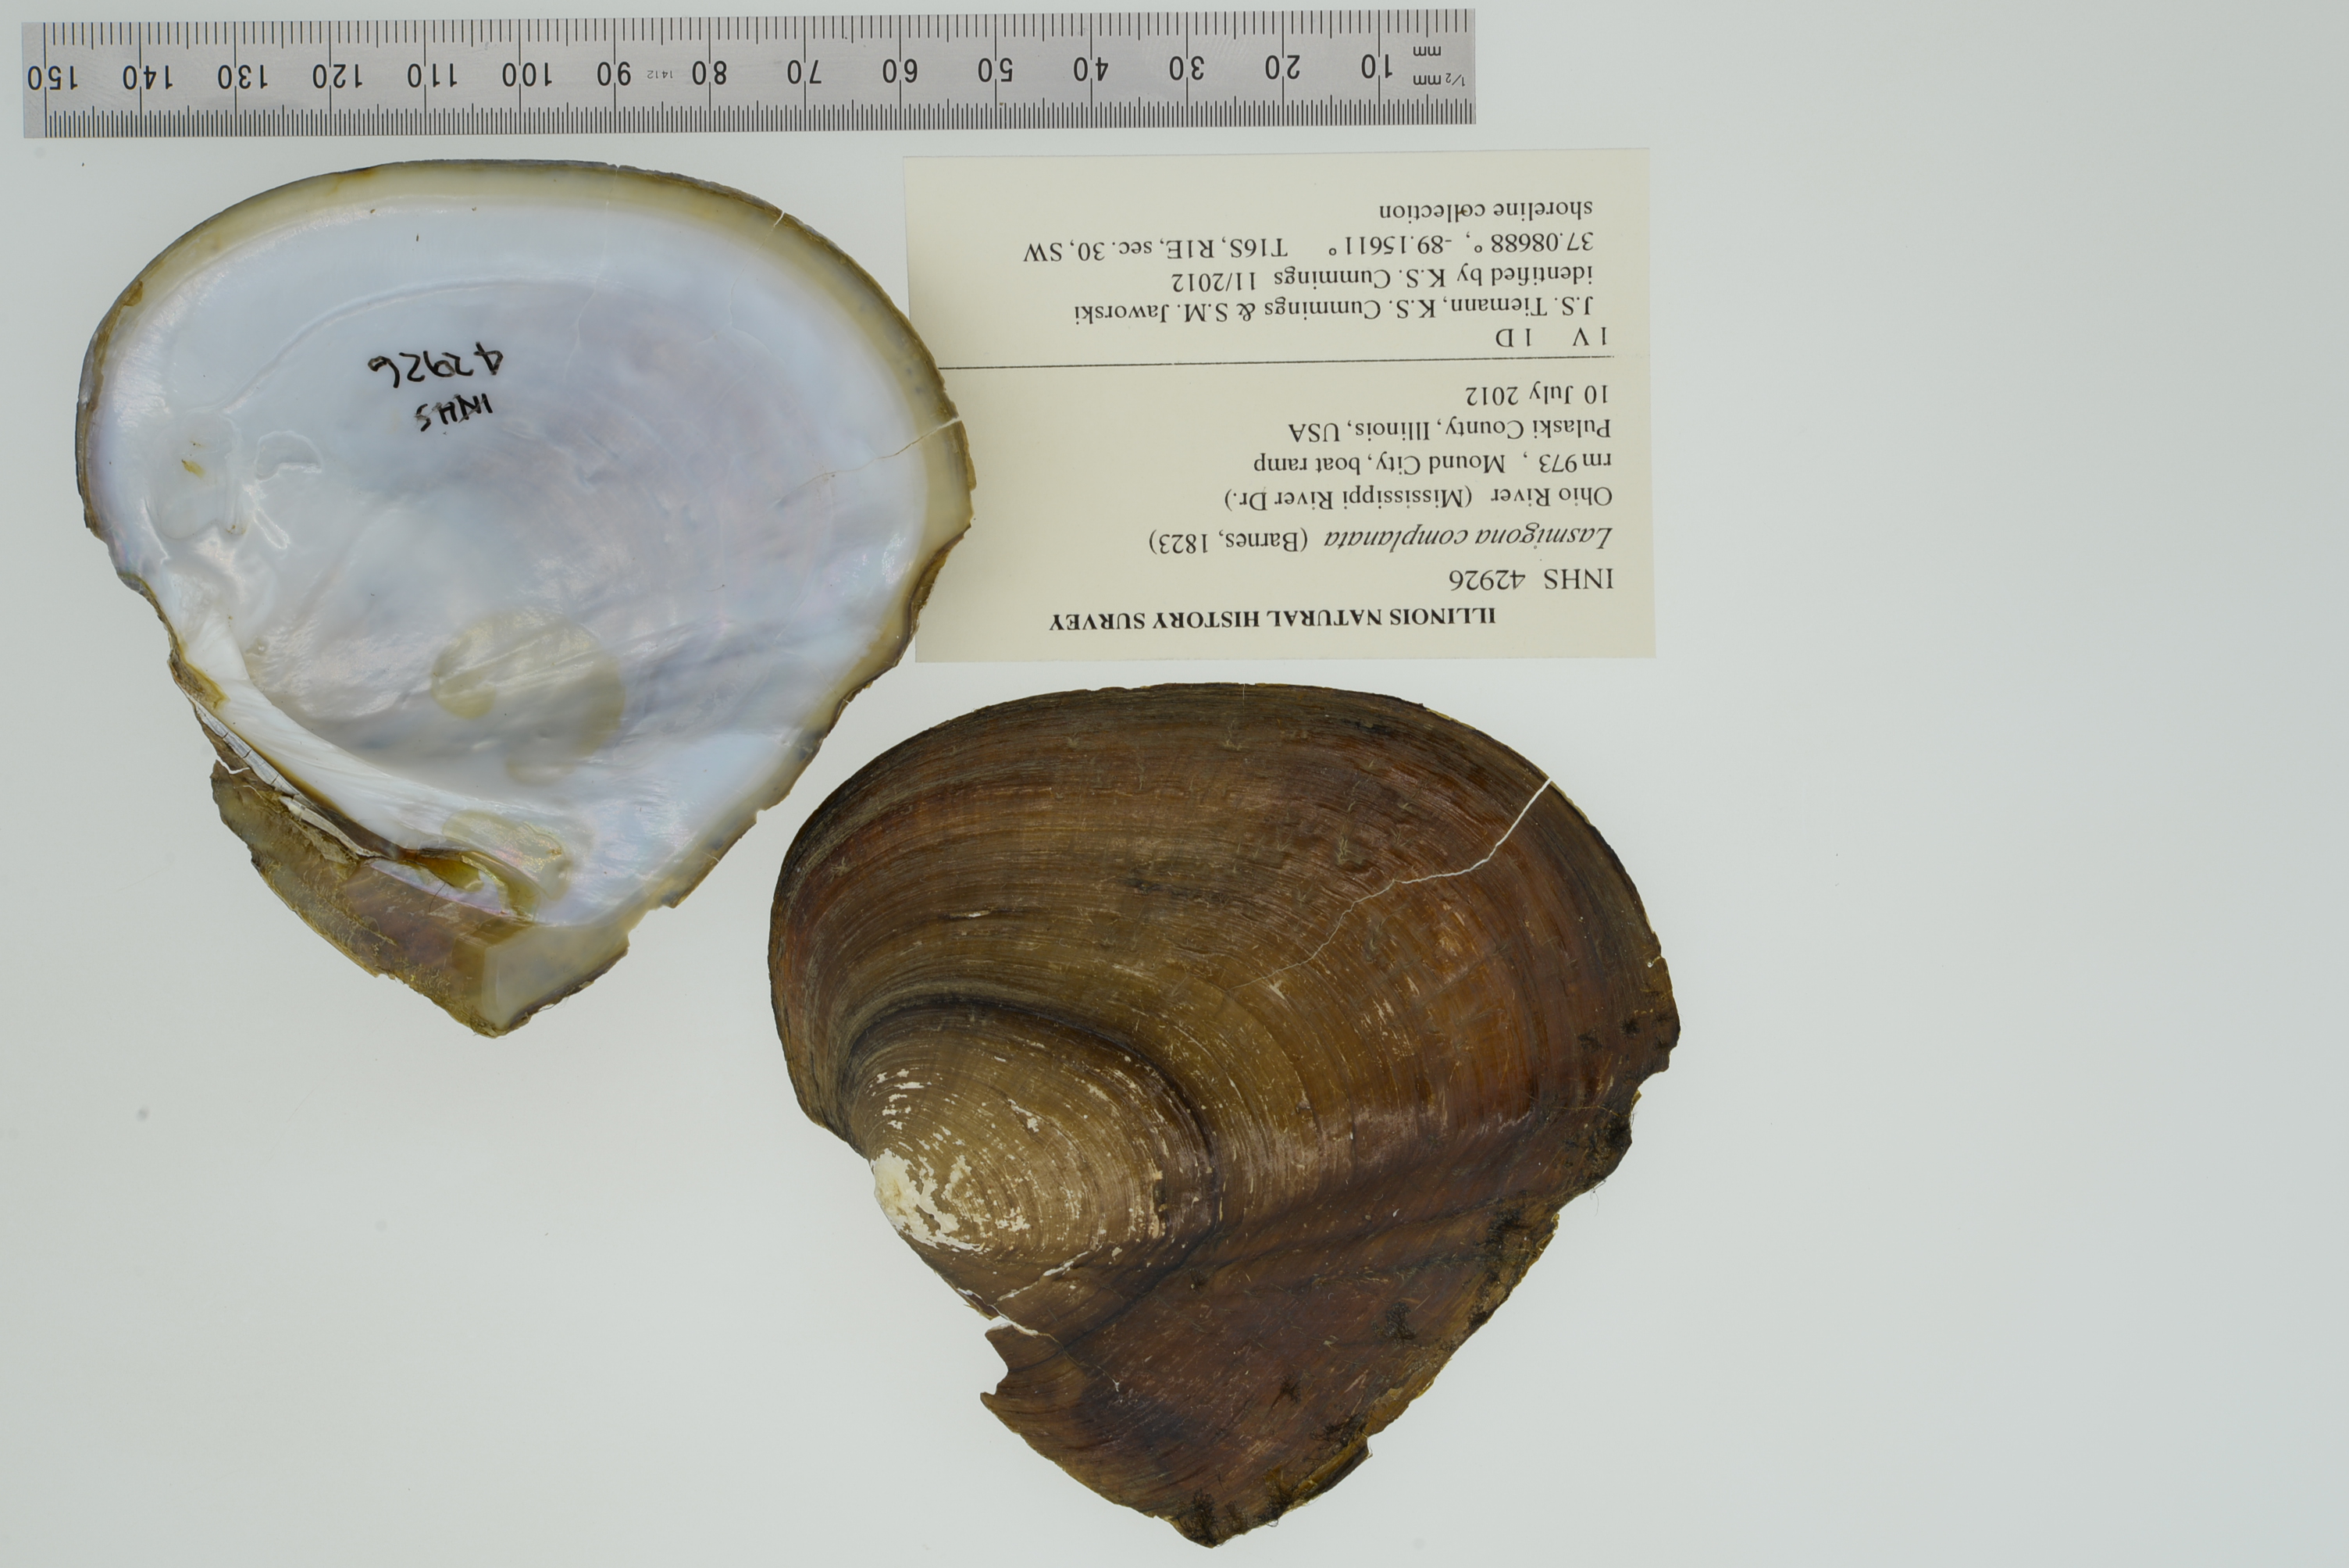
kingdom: Animalia
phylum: Mollusca
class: Bivalvia
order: Unionida
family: Unionidae
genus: Lasmigona
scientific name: Lasmigona complanata
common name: White heelsplitter
